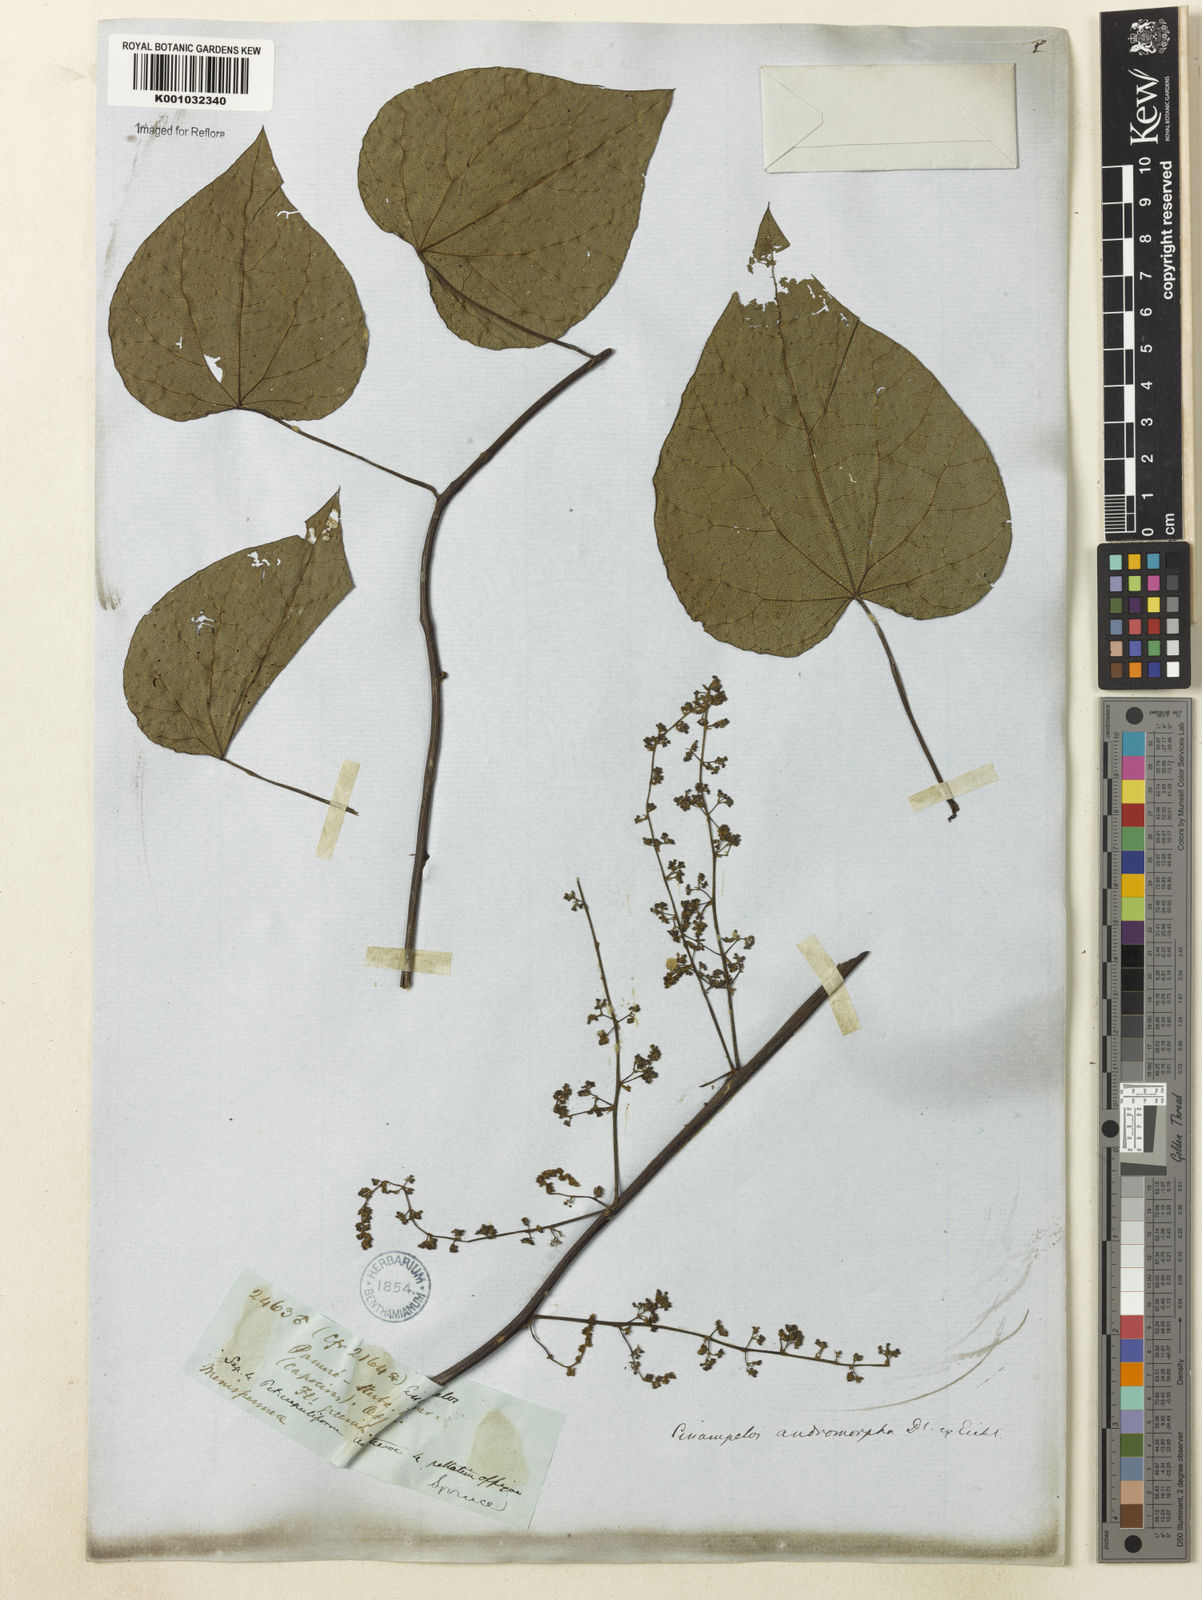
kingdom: Plantae
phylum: Tracheophyta
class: Magnoliopsida
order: Ranunculales
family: Menispermaceae
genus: Cissampelos
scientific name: Cissampelos fasciculata
